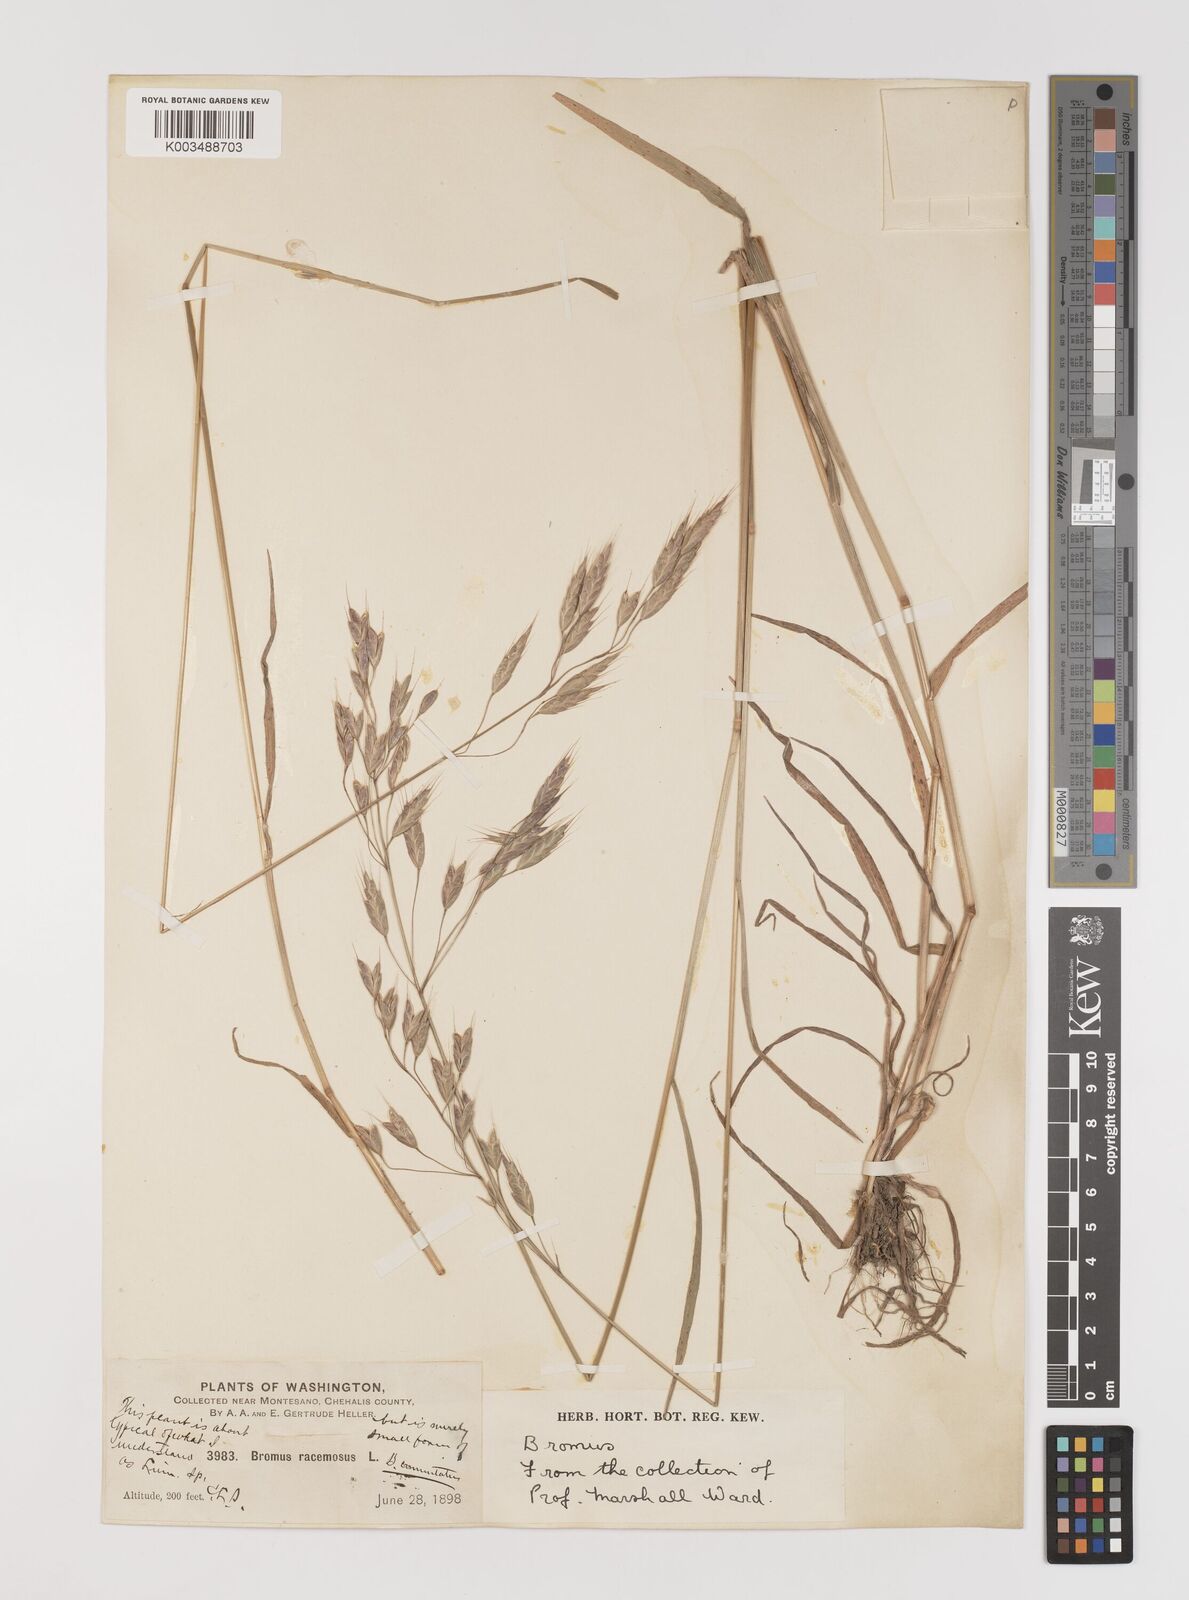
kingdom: Plantae
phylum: Tracheophyta
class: Liliopsida
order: Poales
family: Poaceae
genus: Bromus
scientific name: Bromus racemosus
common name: Bald brome
